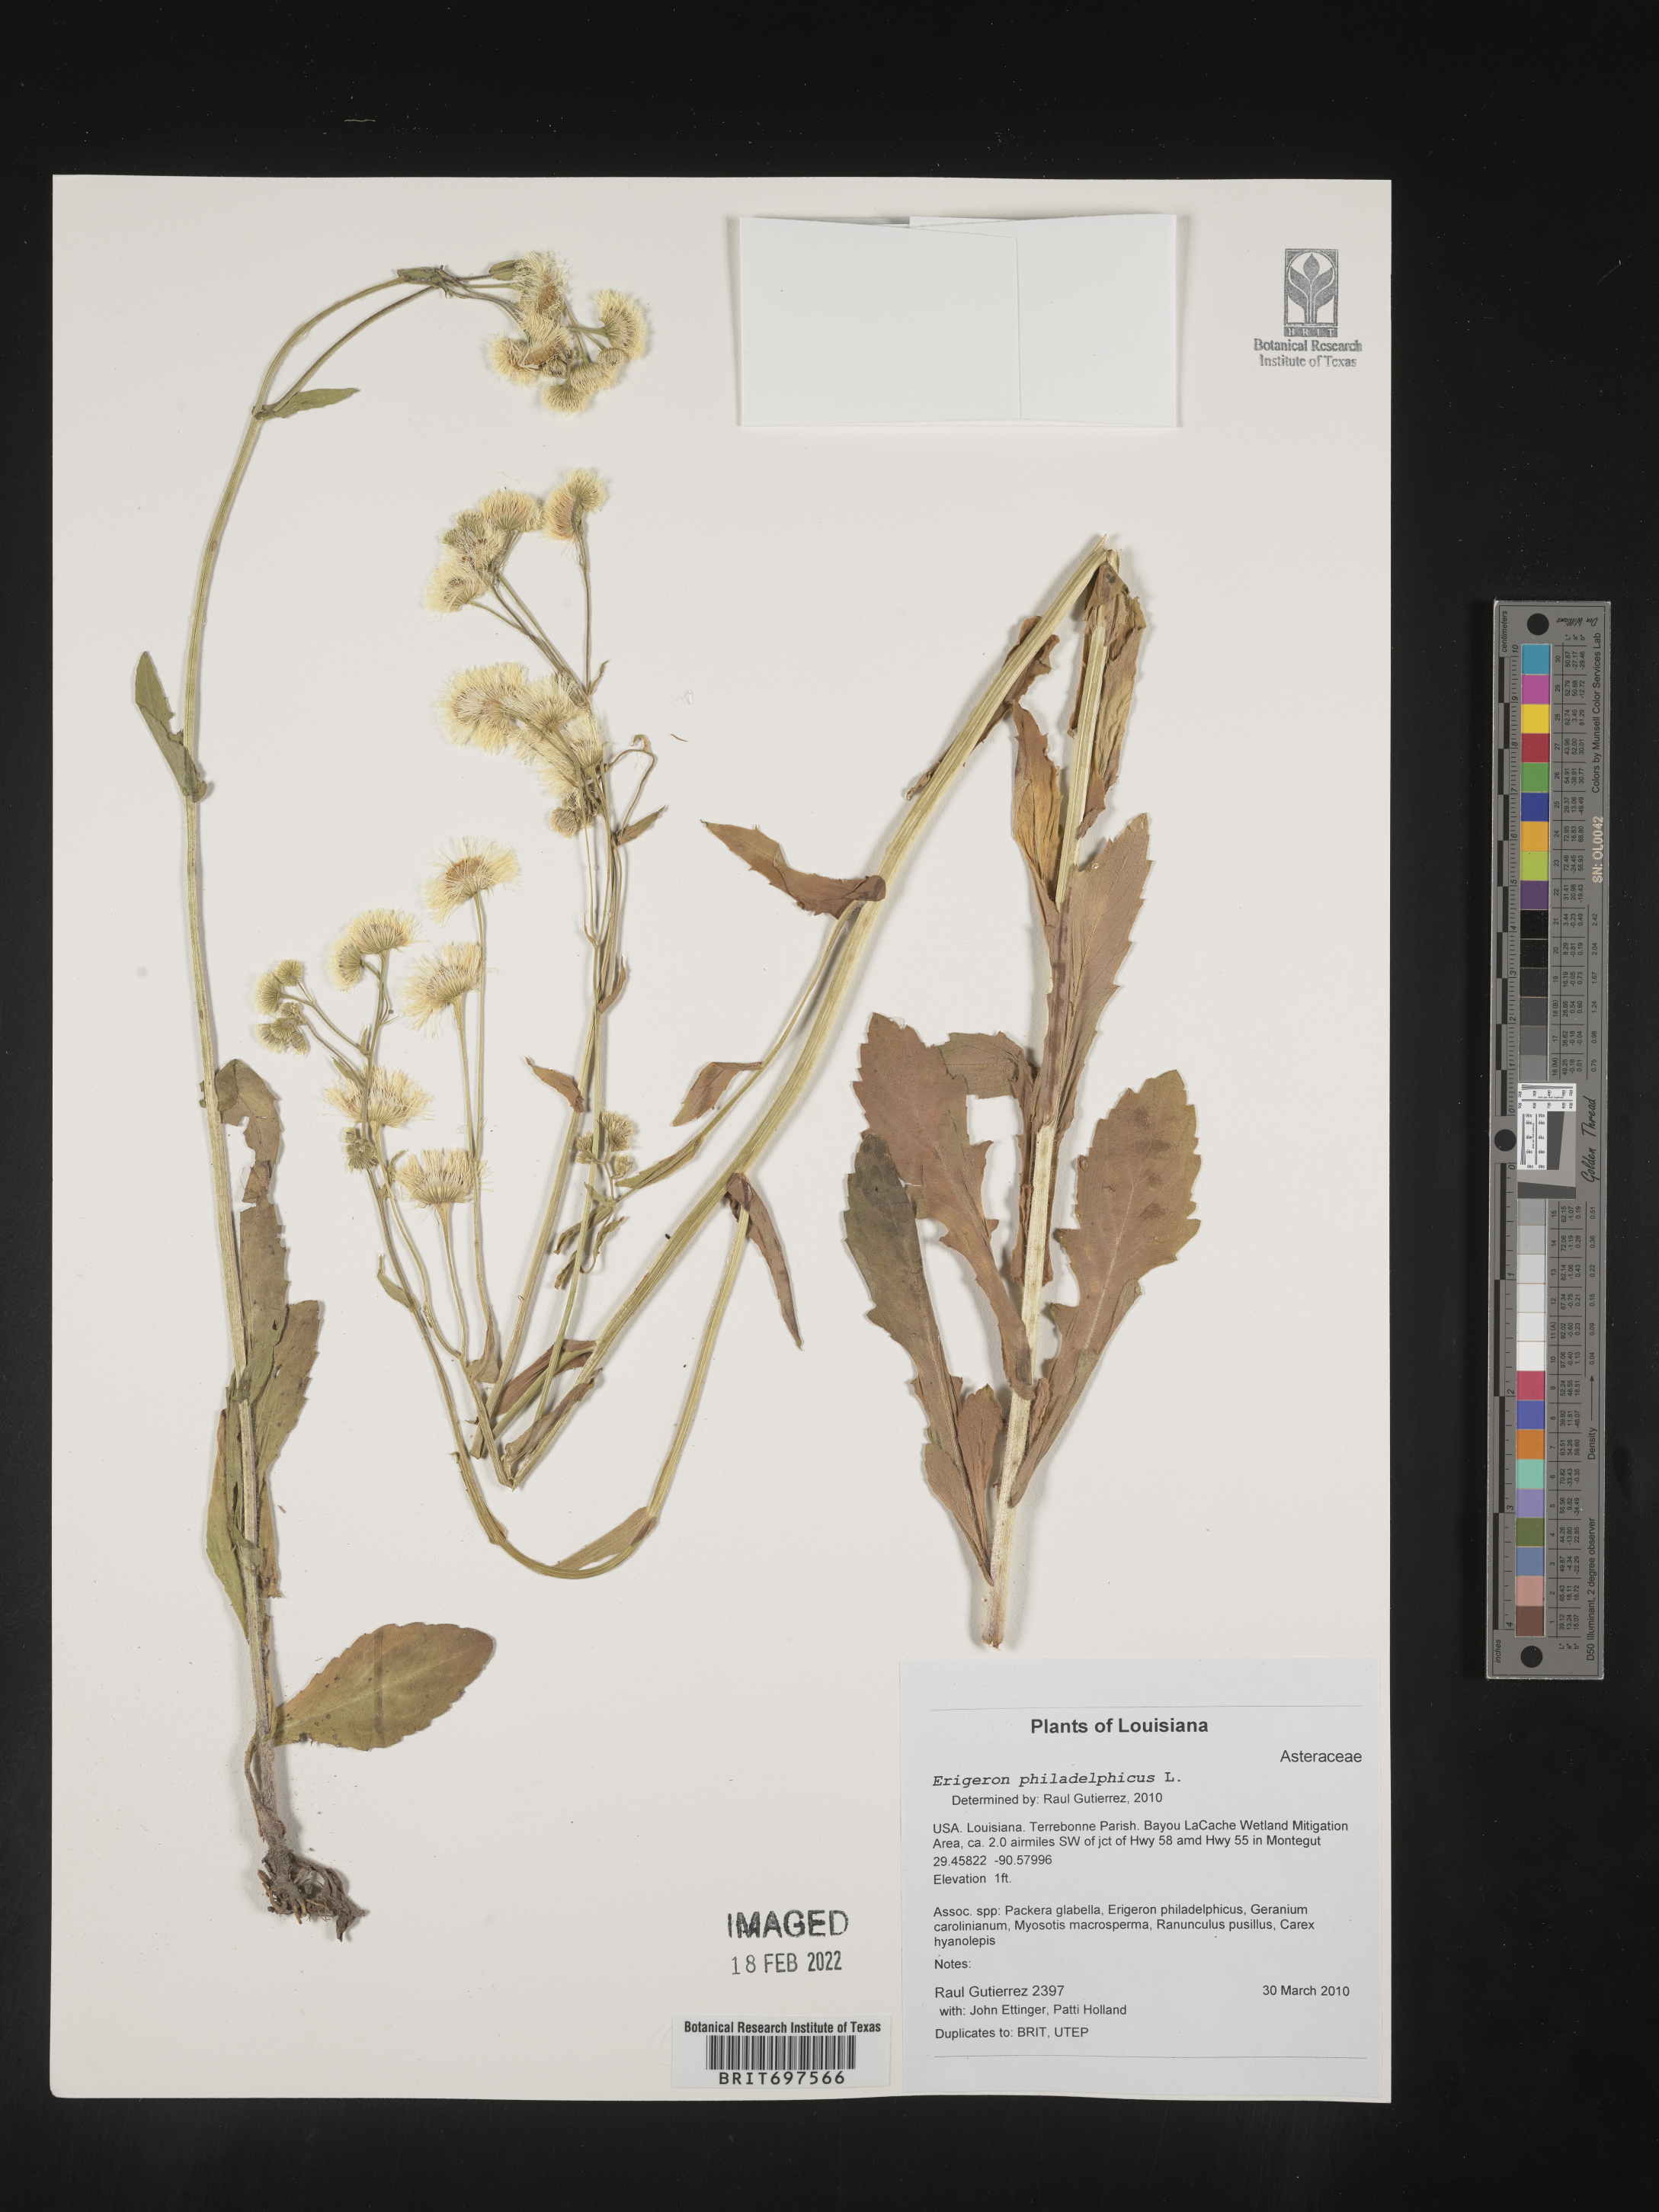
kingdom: Plantae
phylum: Tracheophyta
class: Magnoliopsida
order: Asterales
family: Asteraceae
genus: Erigeron
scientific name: Erigeron philadelphicus
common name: Robin's-plantain
